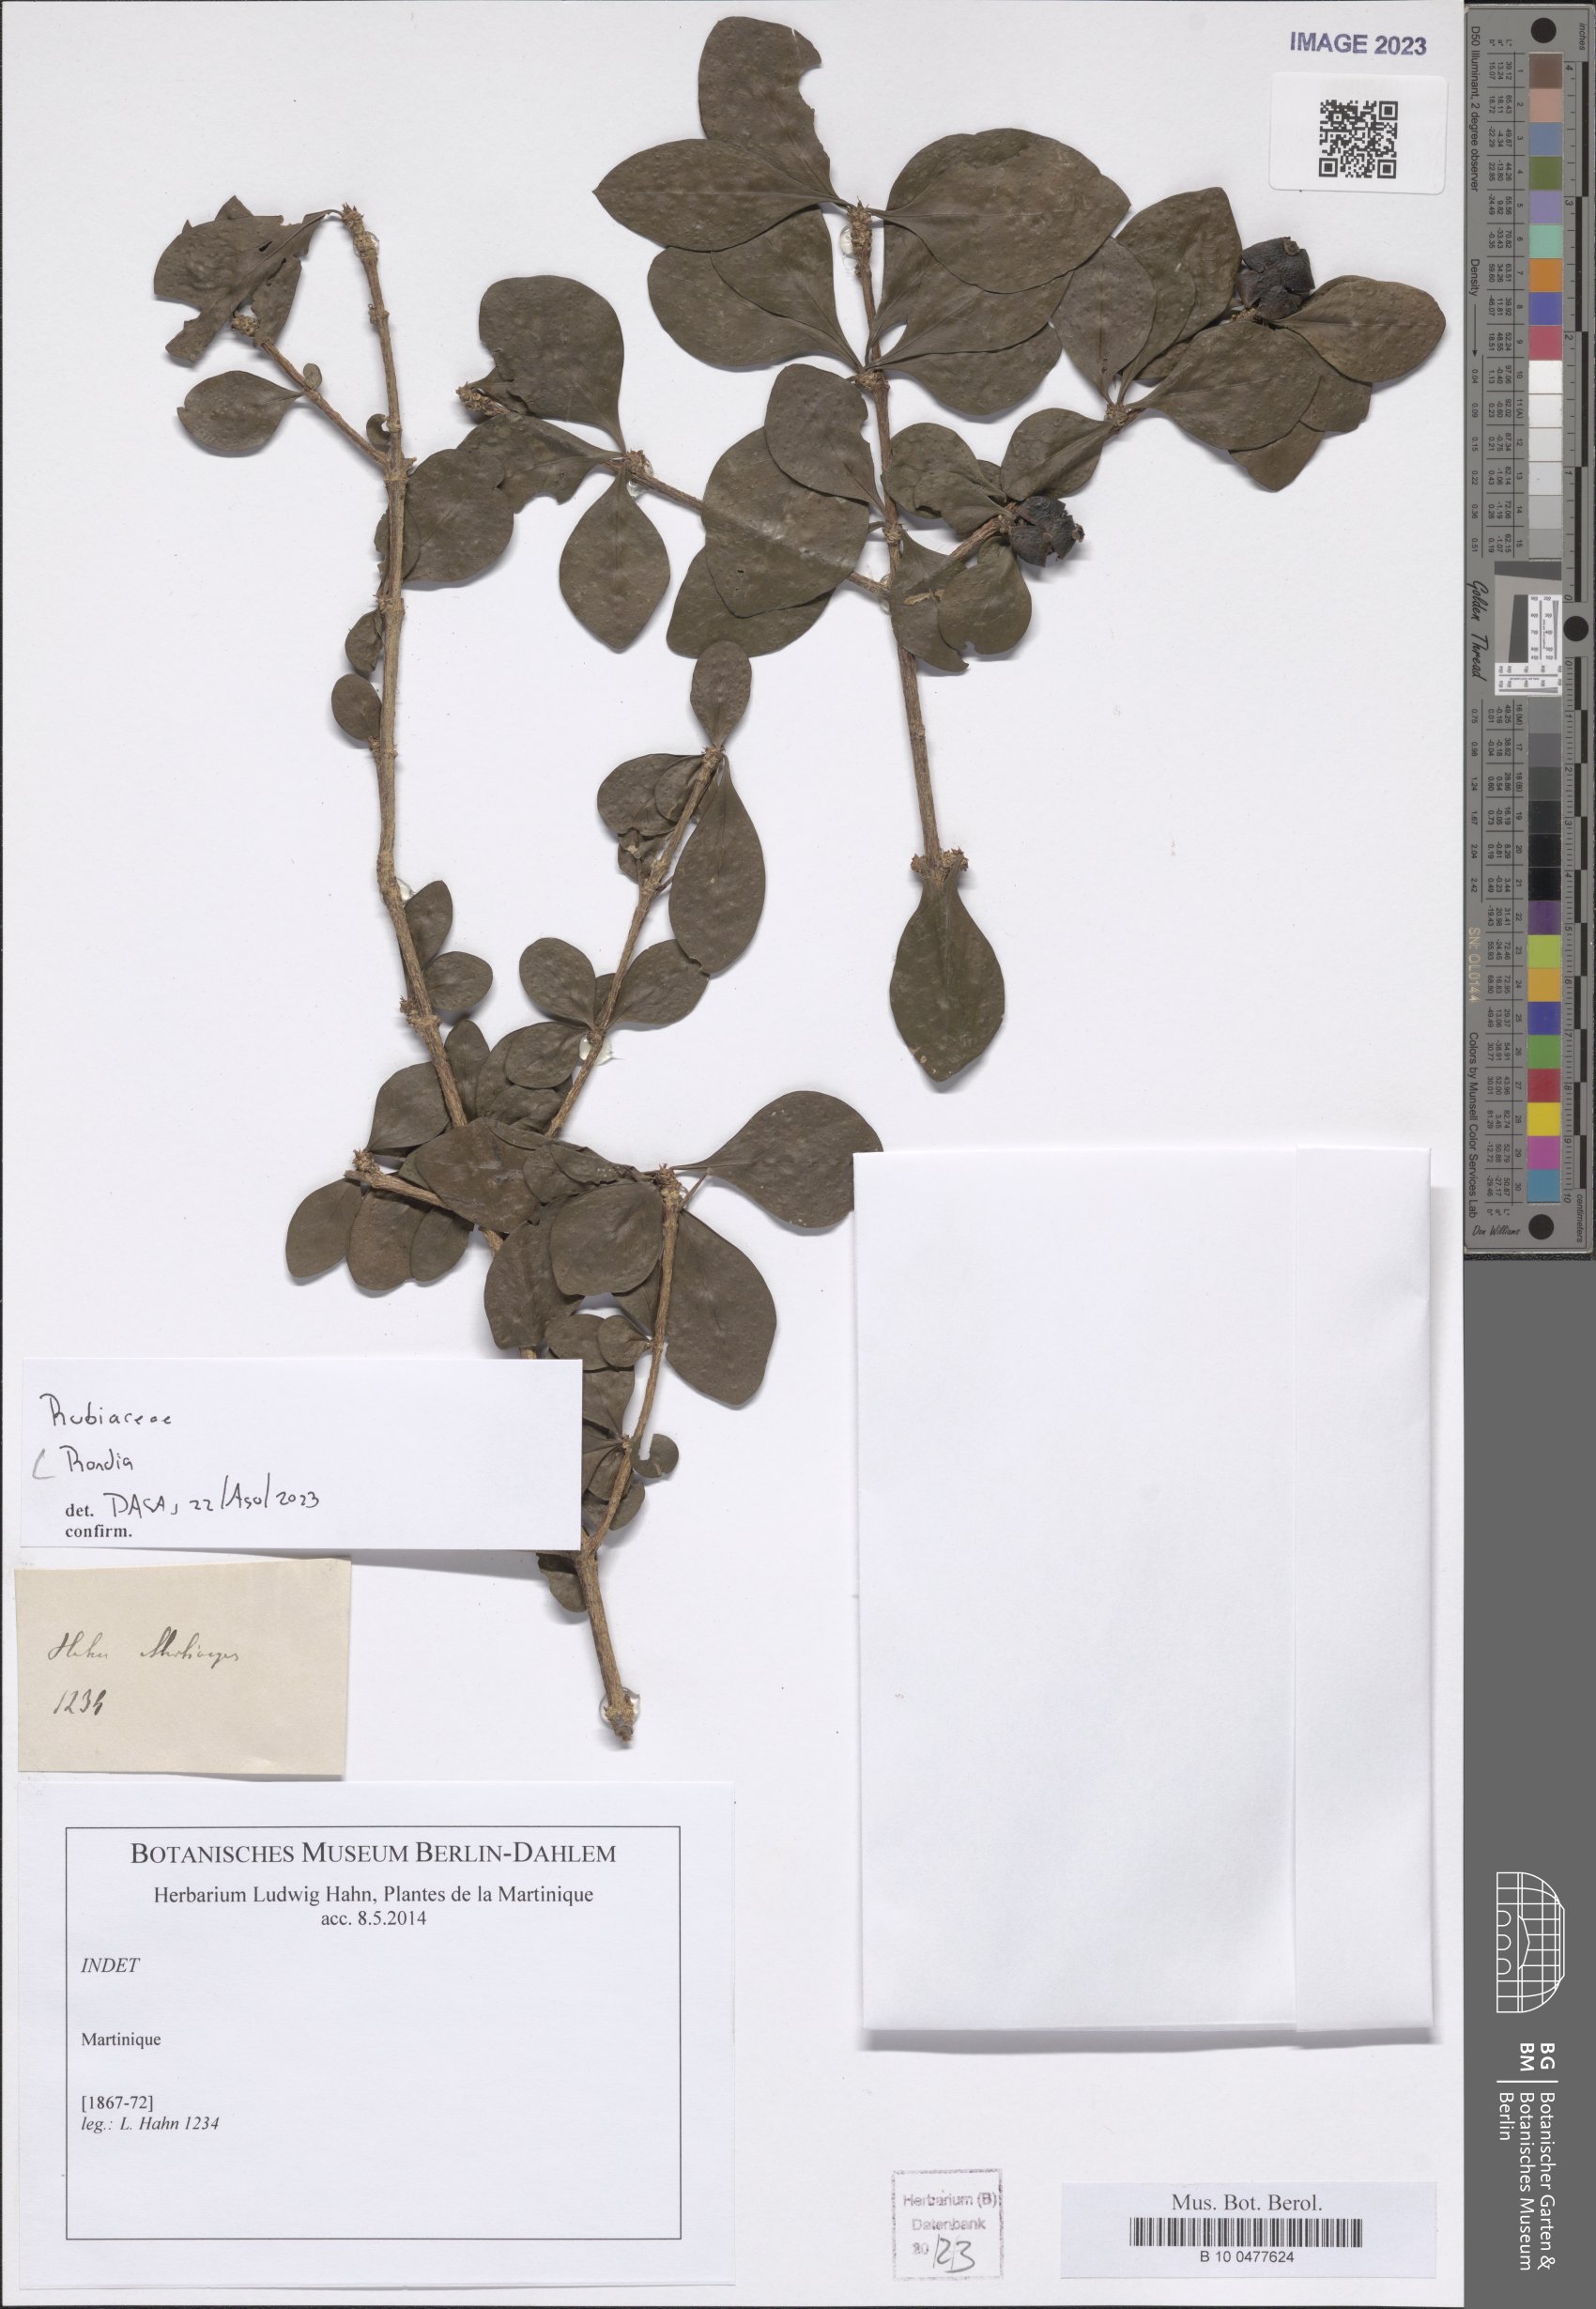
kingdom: Plantae
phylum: Tracheophyta
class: Magnoliopsida
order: Gentianales
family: Rubiaceae
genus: Randia
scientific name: Randia
